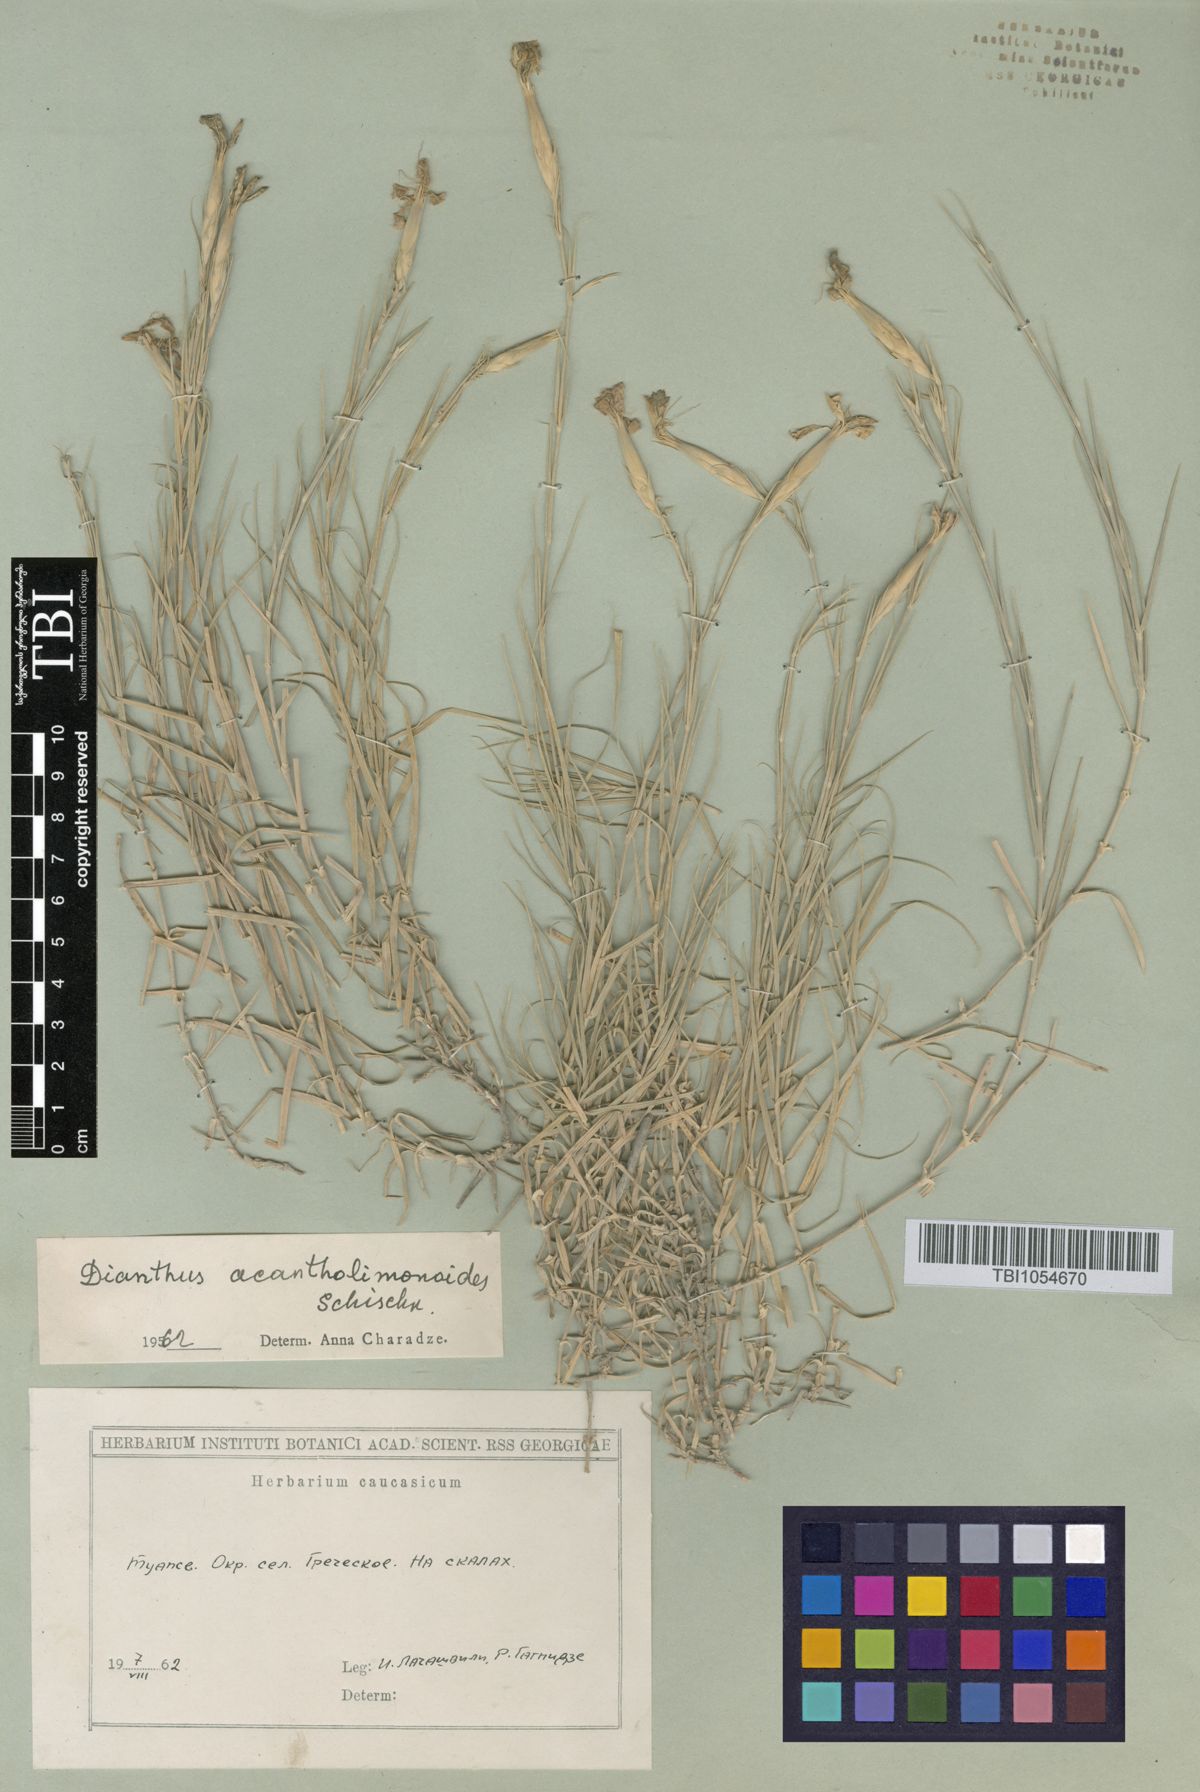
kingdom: Plantae
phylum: Tracheophyta
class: Magnoliopsida
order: Caryophyllales
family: Caryophyllaceae
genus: Dianthus
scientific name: Dianthus
